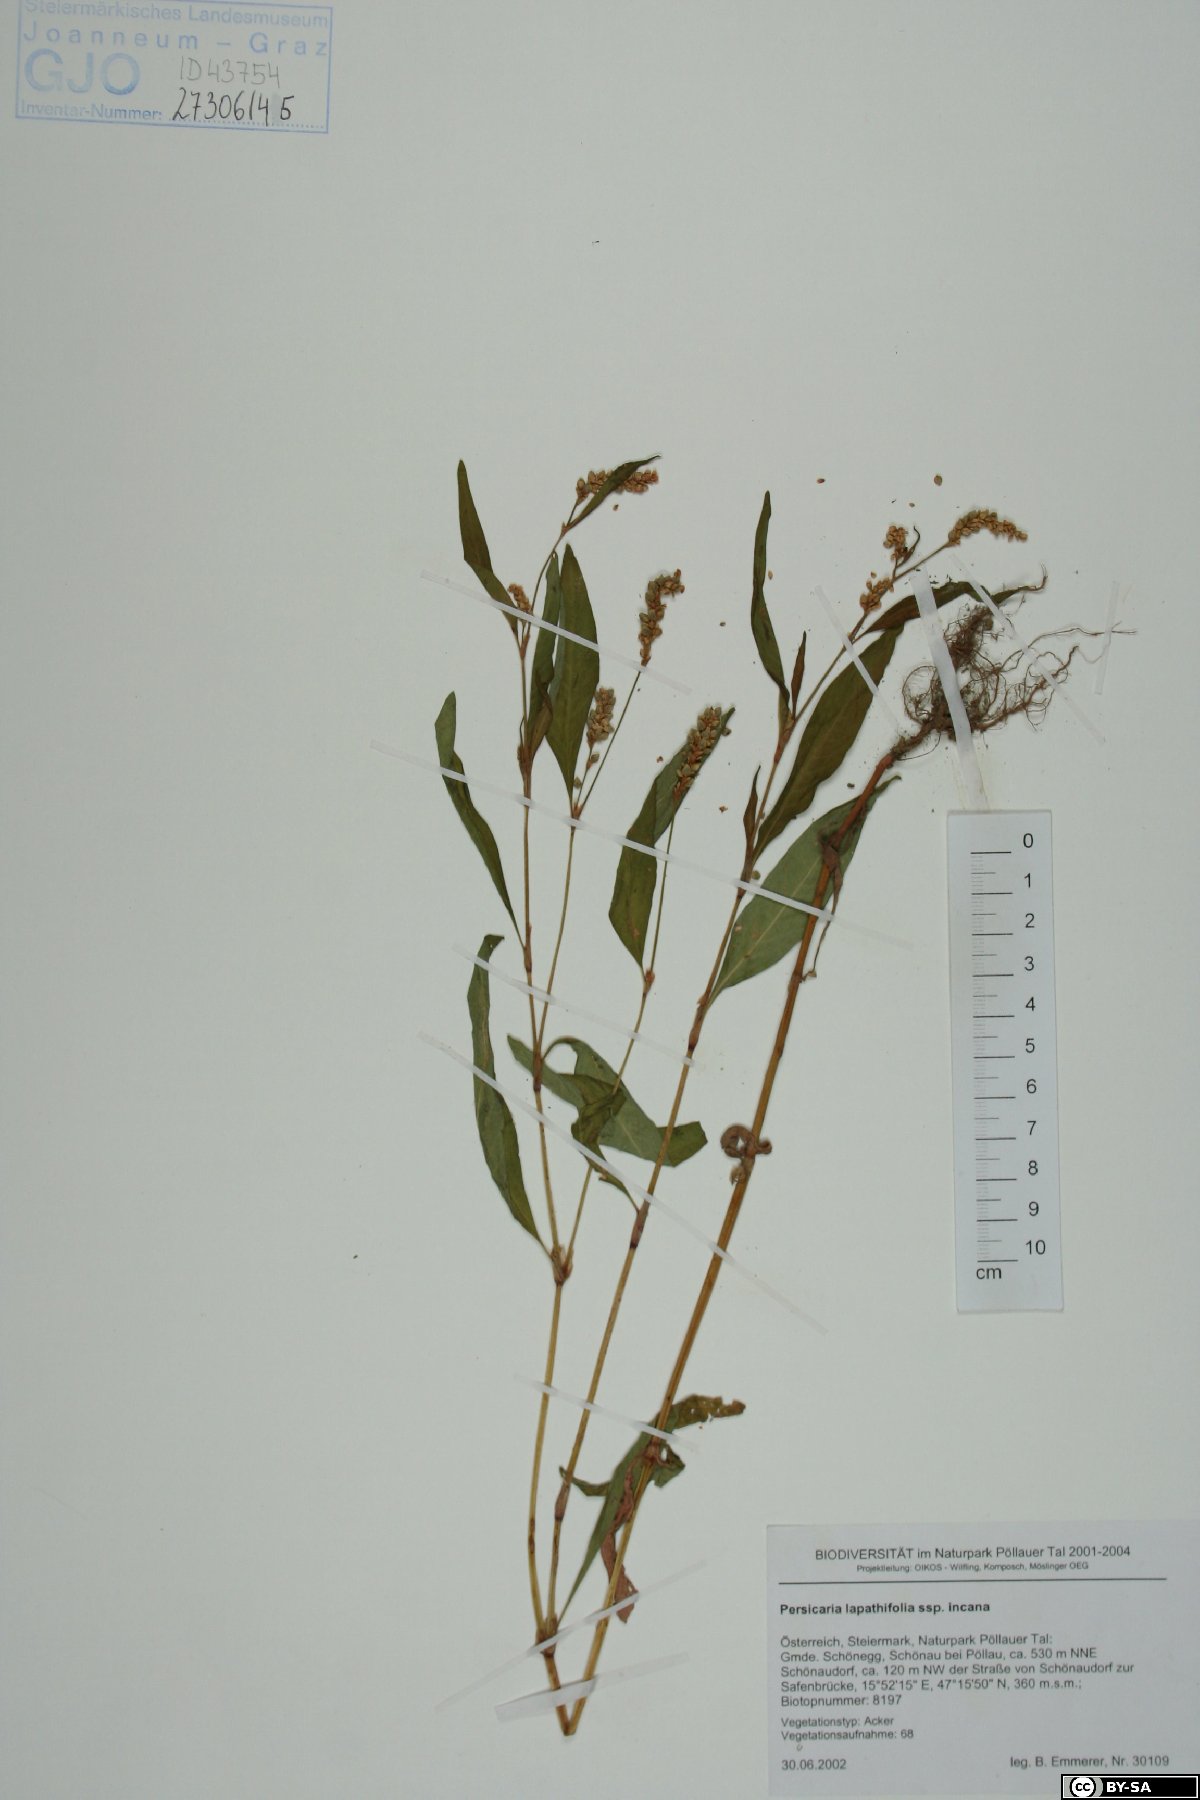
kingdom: Plantae
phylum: Tracheophyta
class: Magnoliopsida
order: Caryophyllales
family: Polygonaceae
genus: Persicaria
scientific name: Persicaria lapathifolia
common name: Curlytop knotweed
